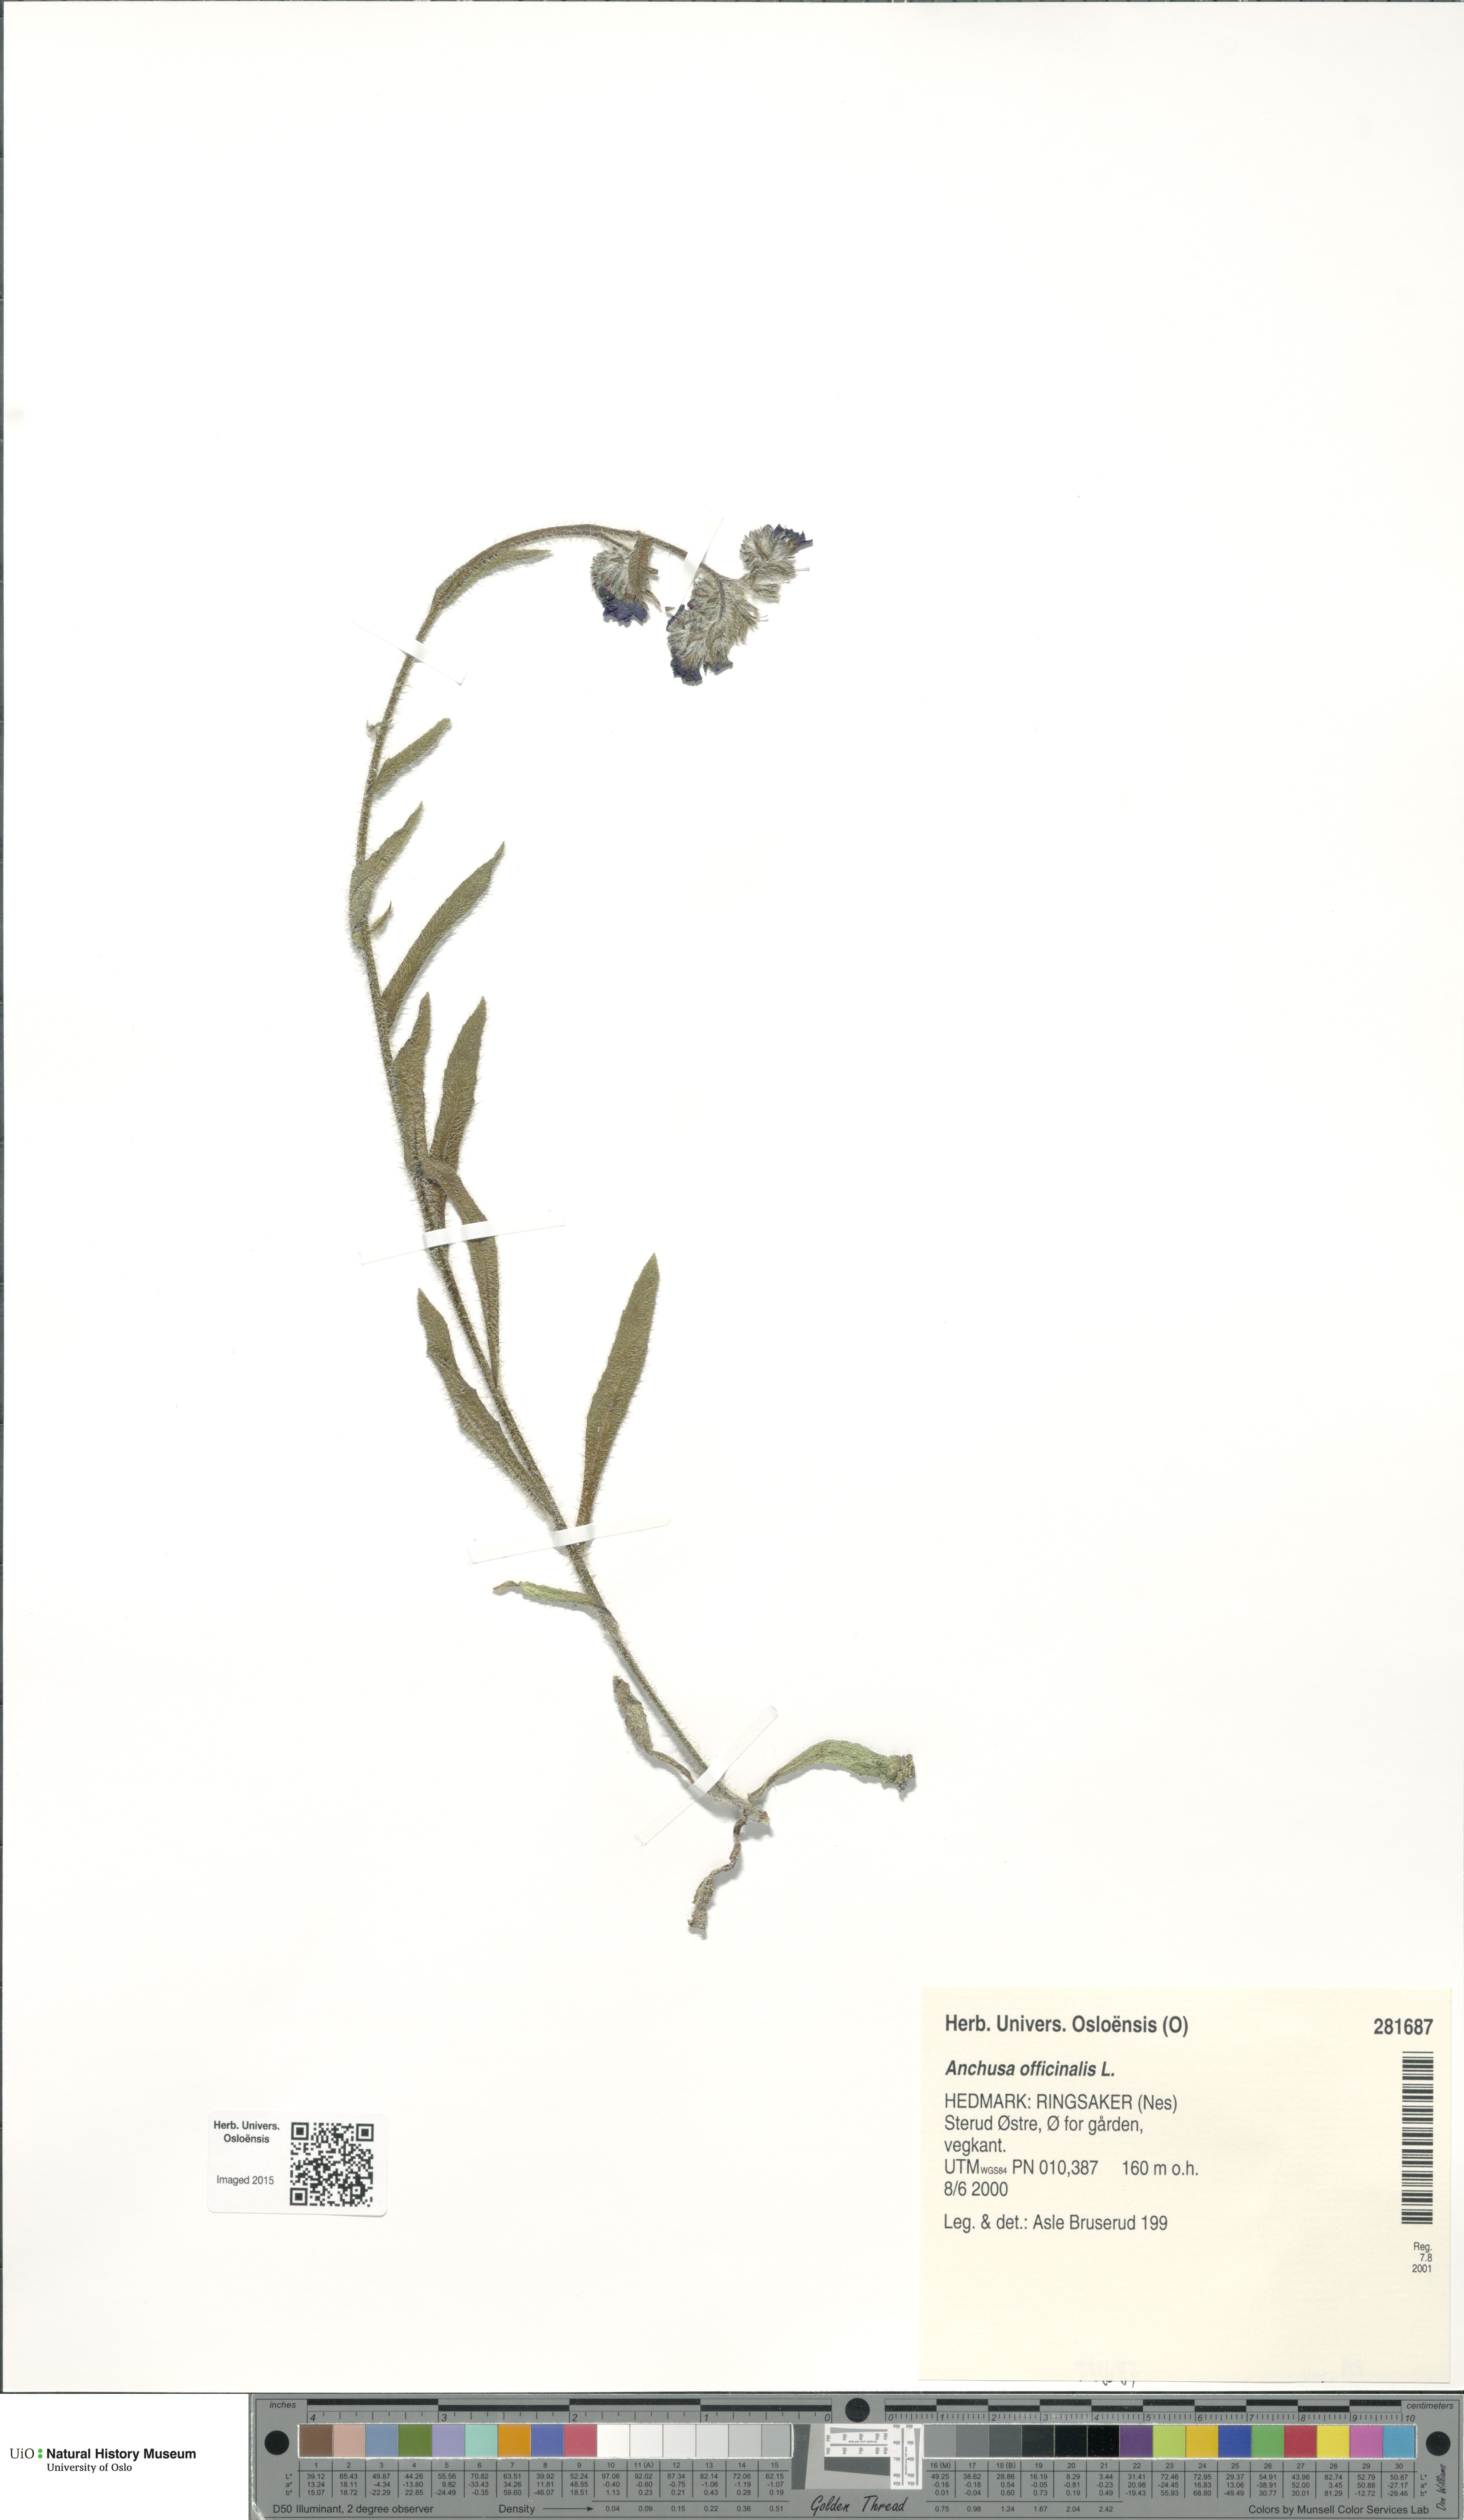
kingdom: Plantae
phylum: Tracheophyta
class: Magnoliopsida
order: Boraginales
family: Boraginaceae
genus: Anchusa
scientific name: Anchusa officinalis
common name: Alkanet
